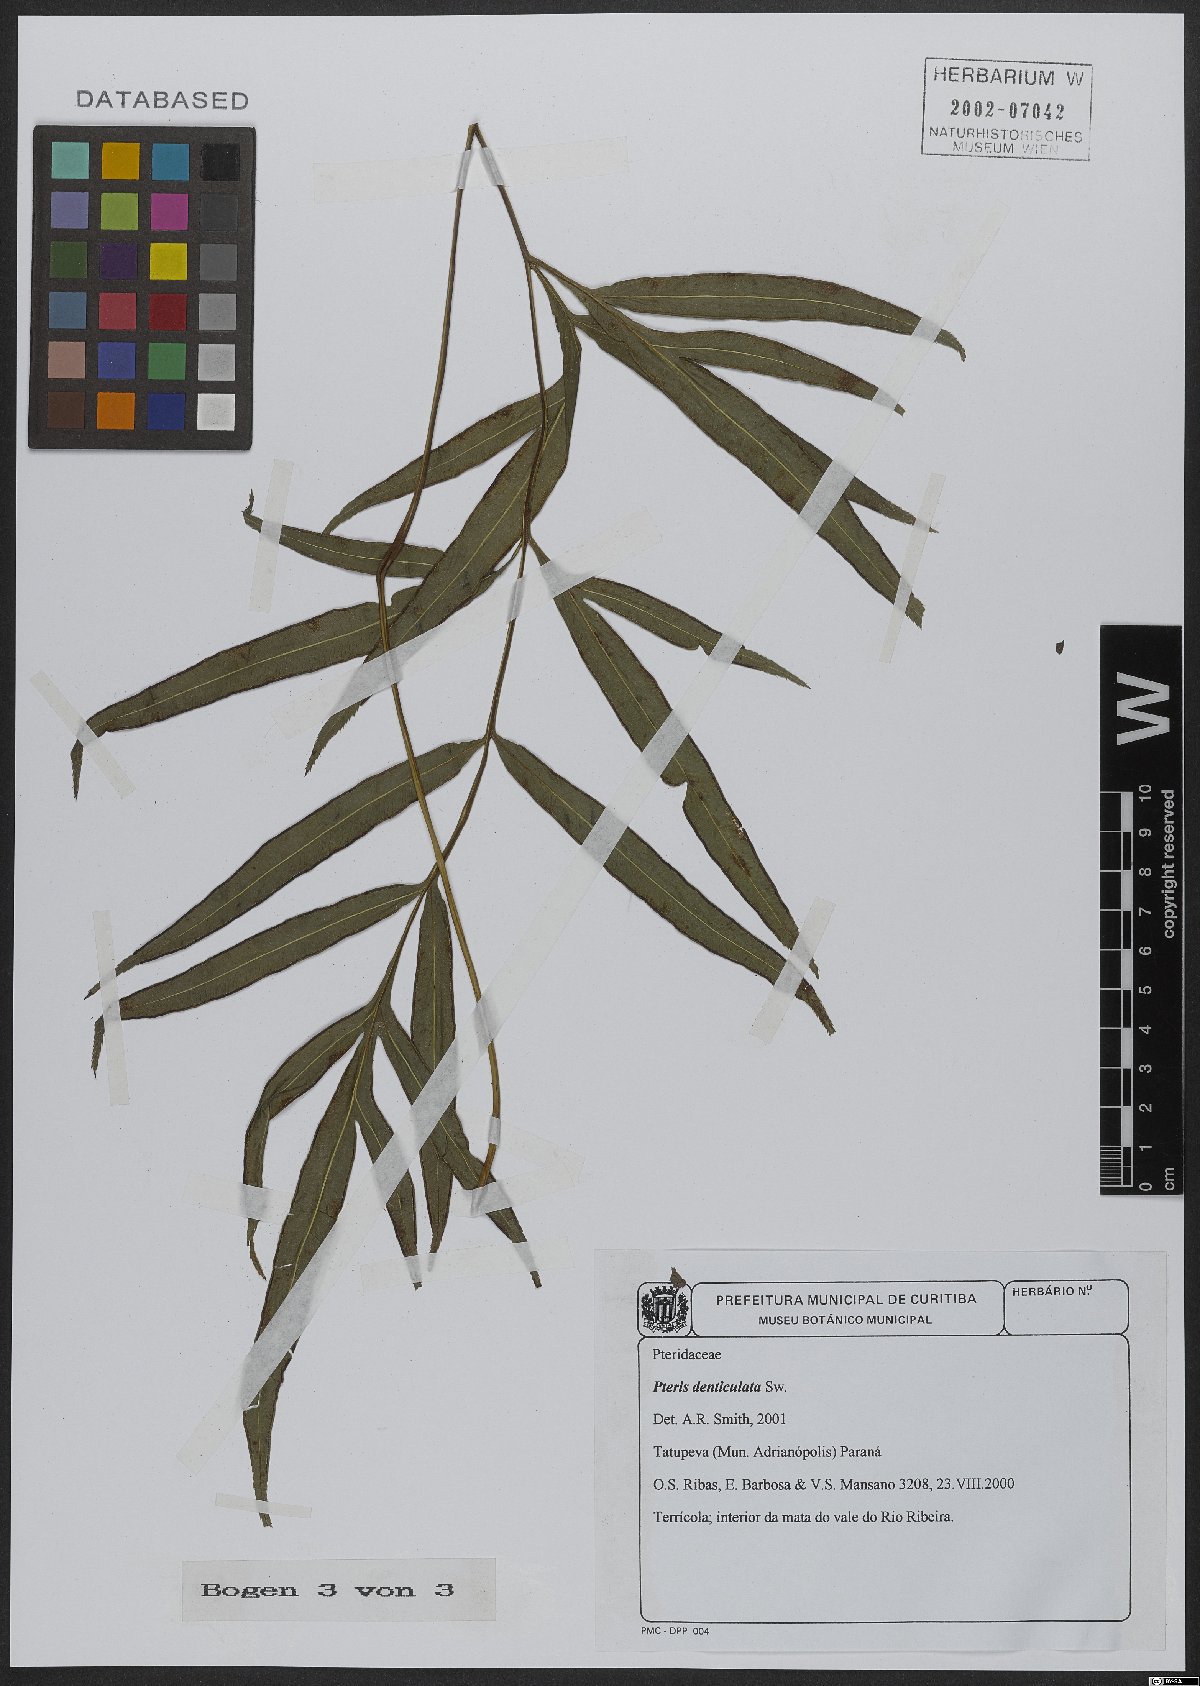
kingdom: Plantae
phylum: Tracheophyta
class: Polypodiopsida
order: Polypodiales
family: Pteridaceae
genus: Pteris
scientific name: Pteris denticulata
